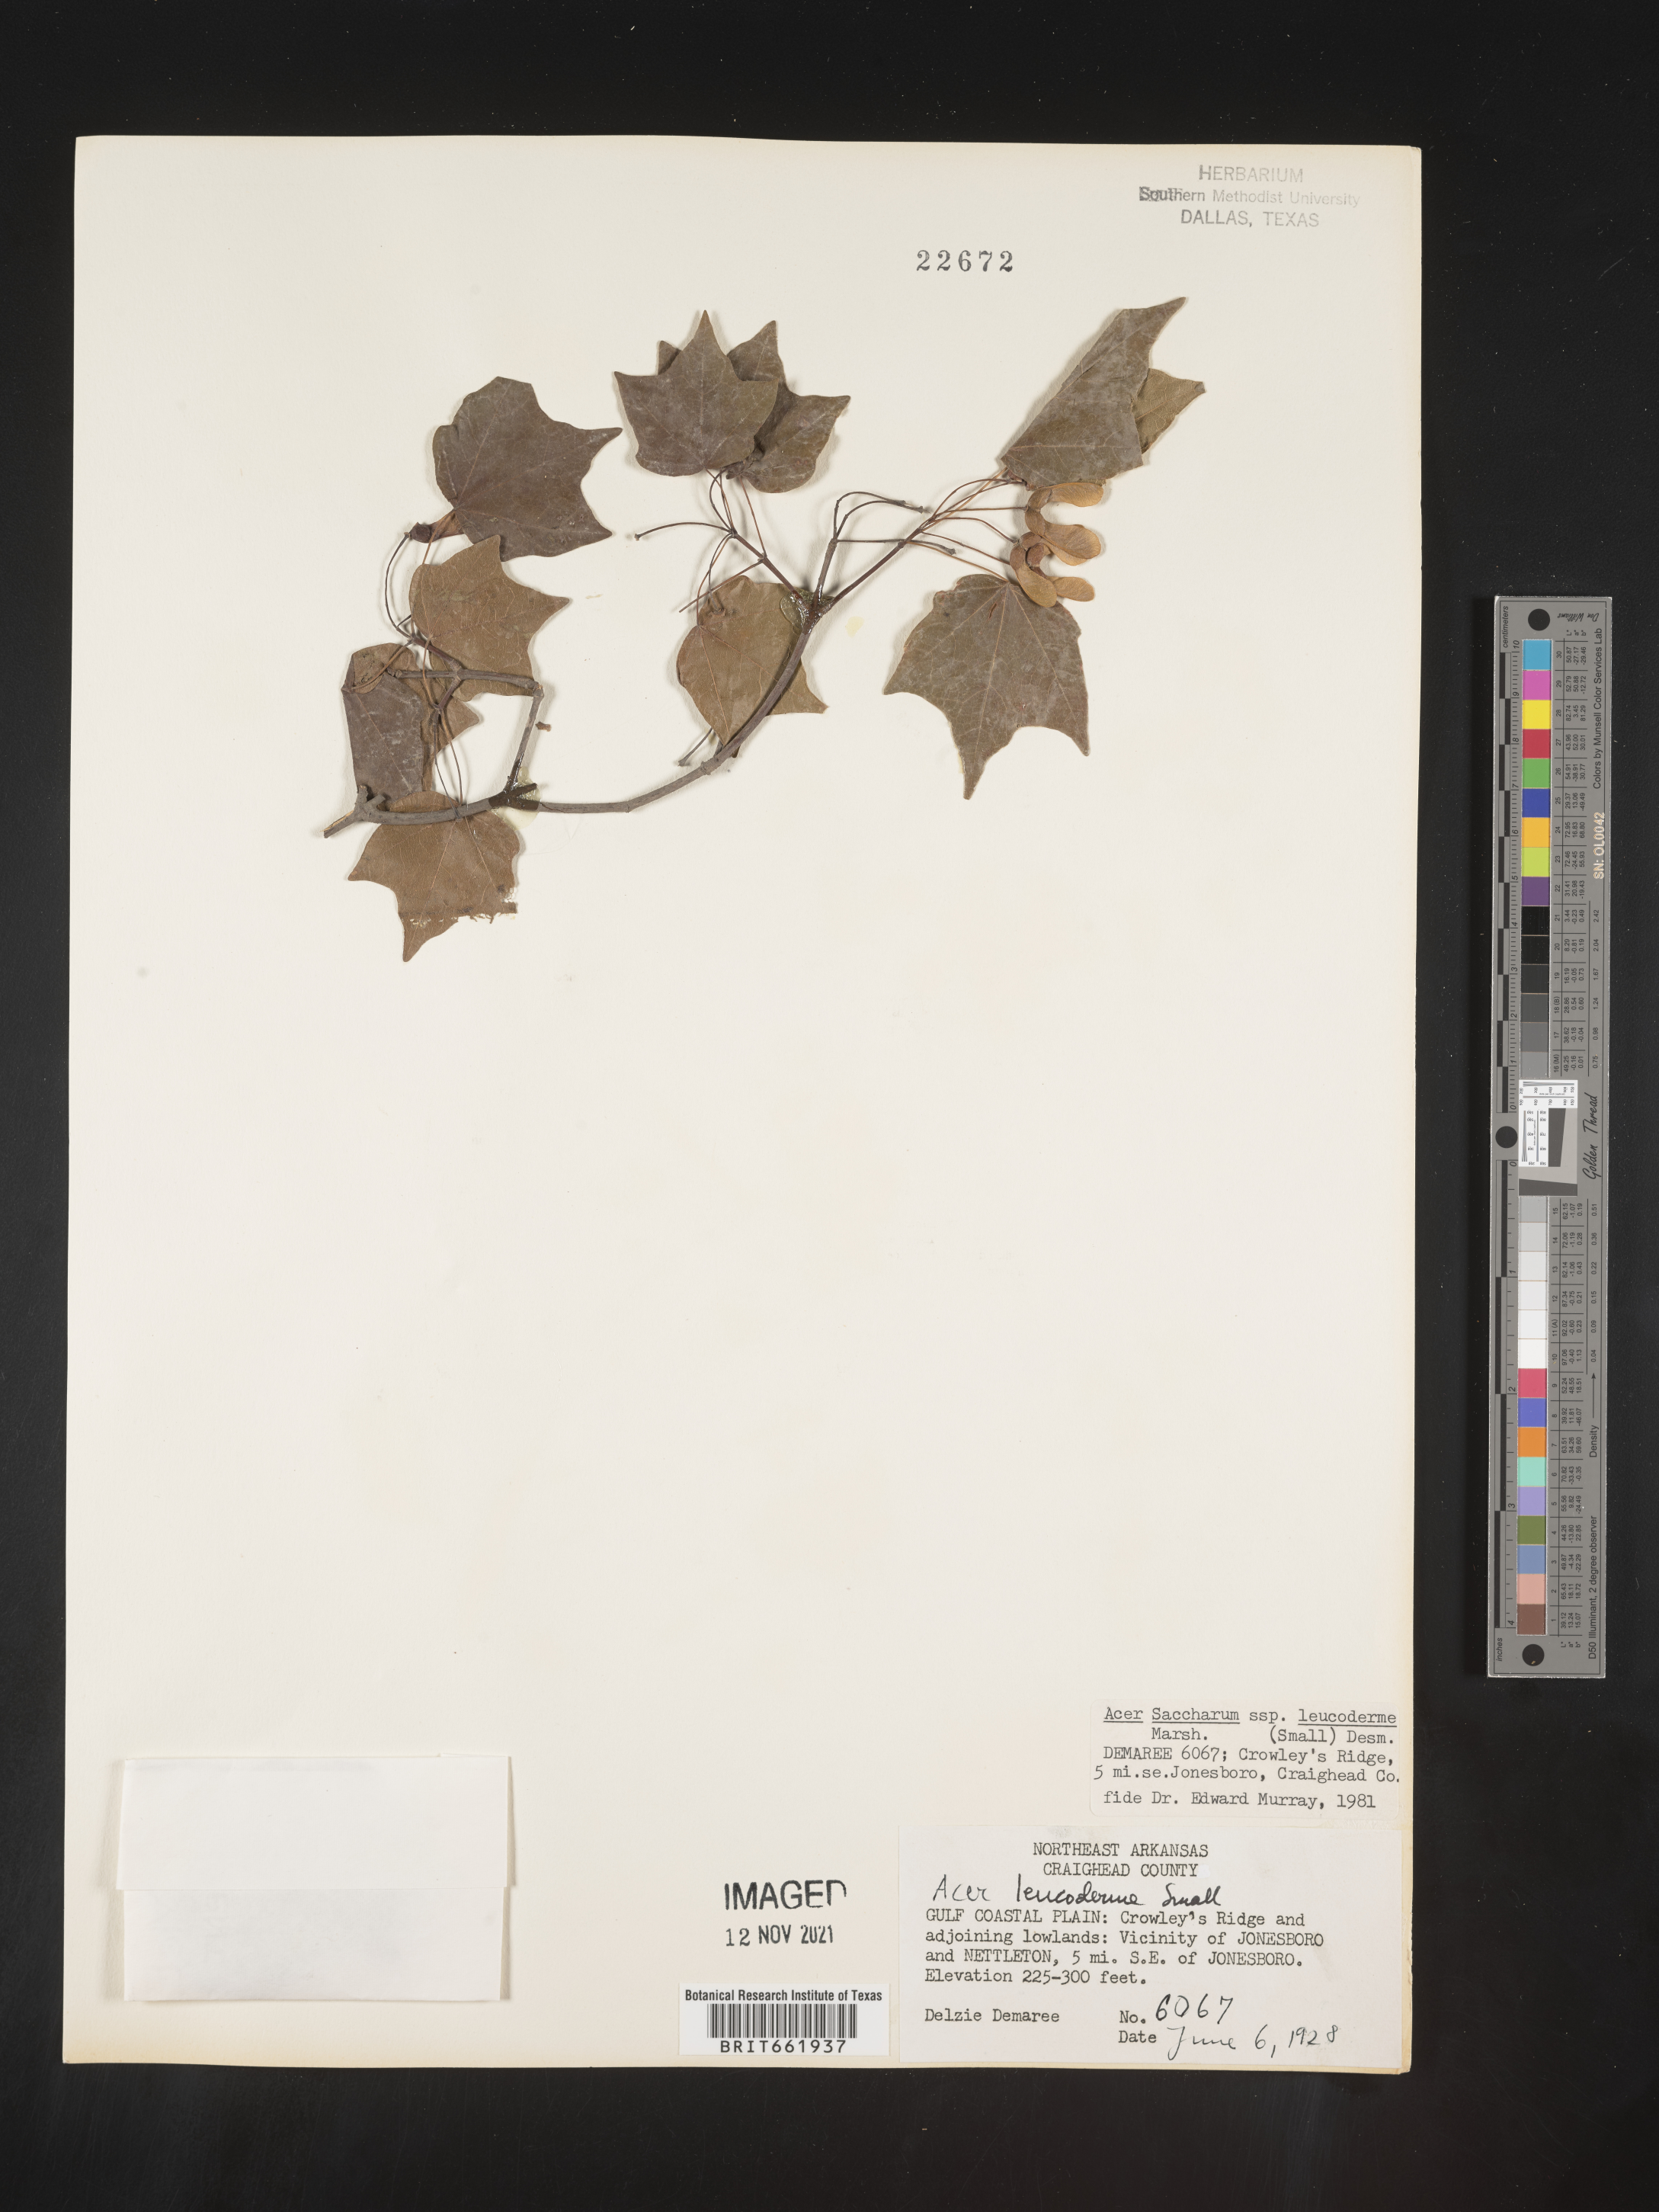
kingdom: Plantae
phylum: Tracheophyta
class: Magnoliopsida
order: Sapindales
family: Sapindaceae
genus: Acer
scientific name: Acer leucoderme
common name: Chalk maple
